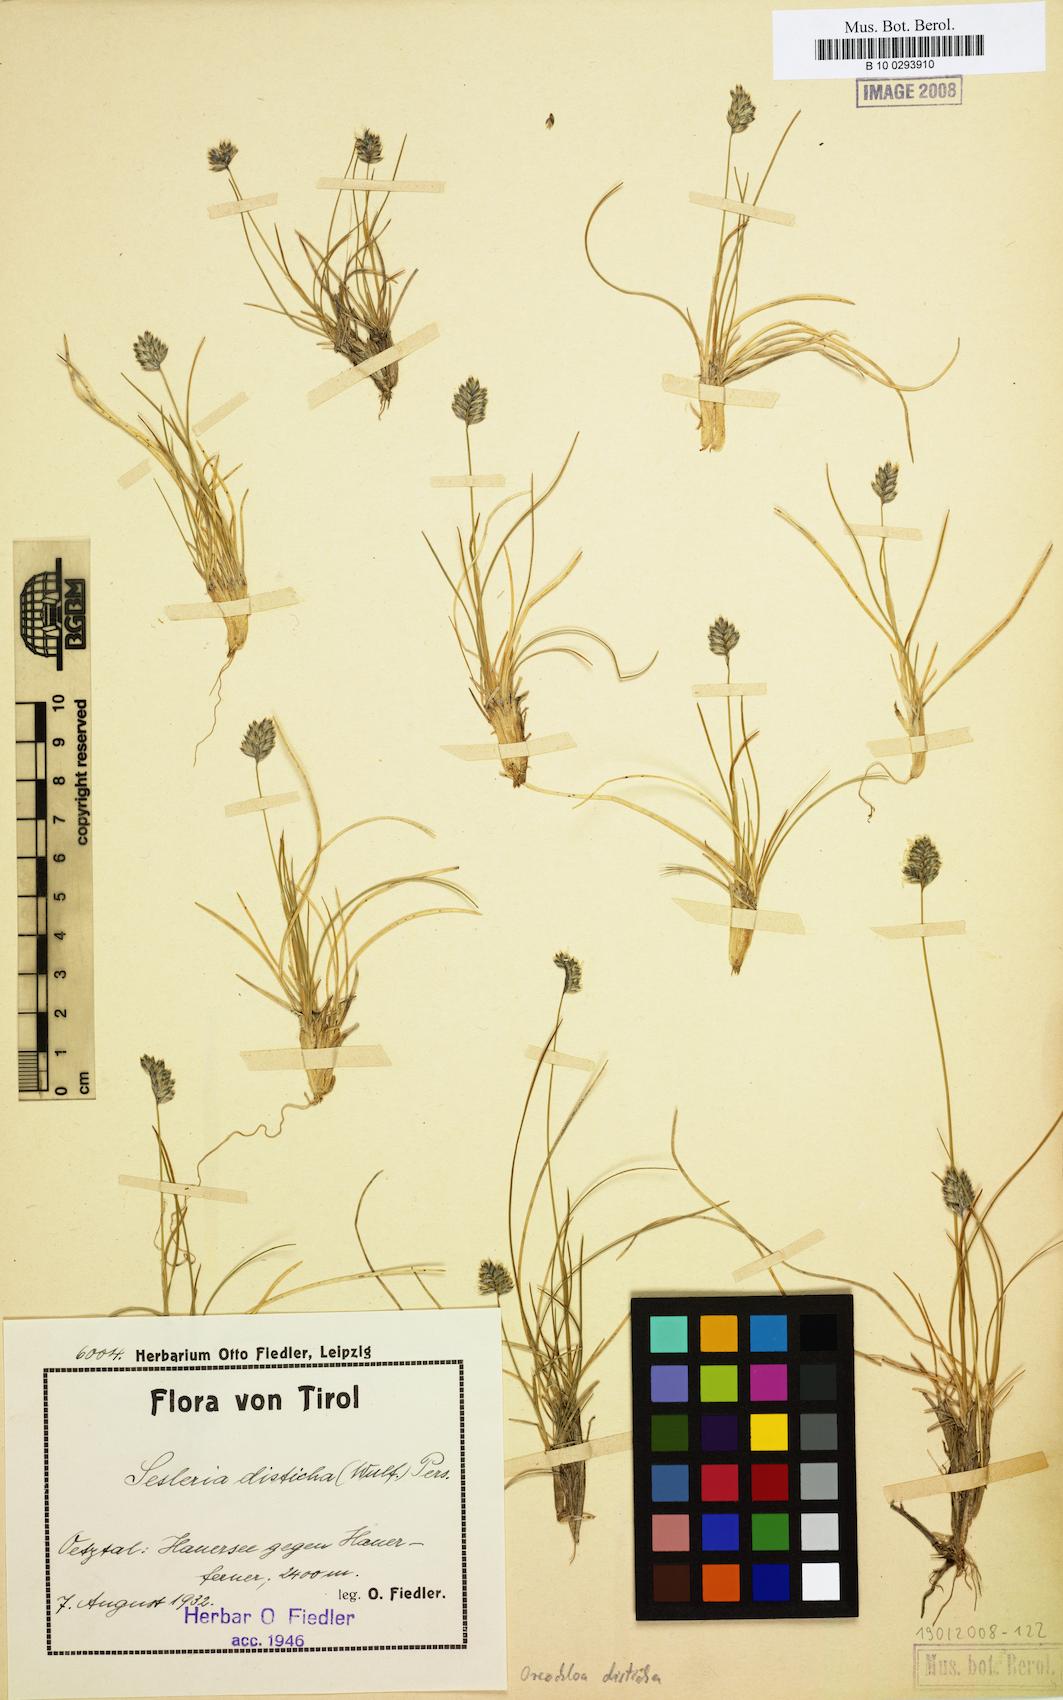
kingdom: Plantae
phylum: Tracheophyta
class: Liliopsida
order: Poales
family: Poaceae
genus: Oreochloa
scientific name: Oreochloa disticha
